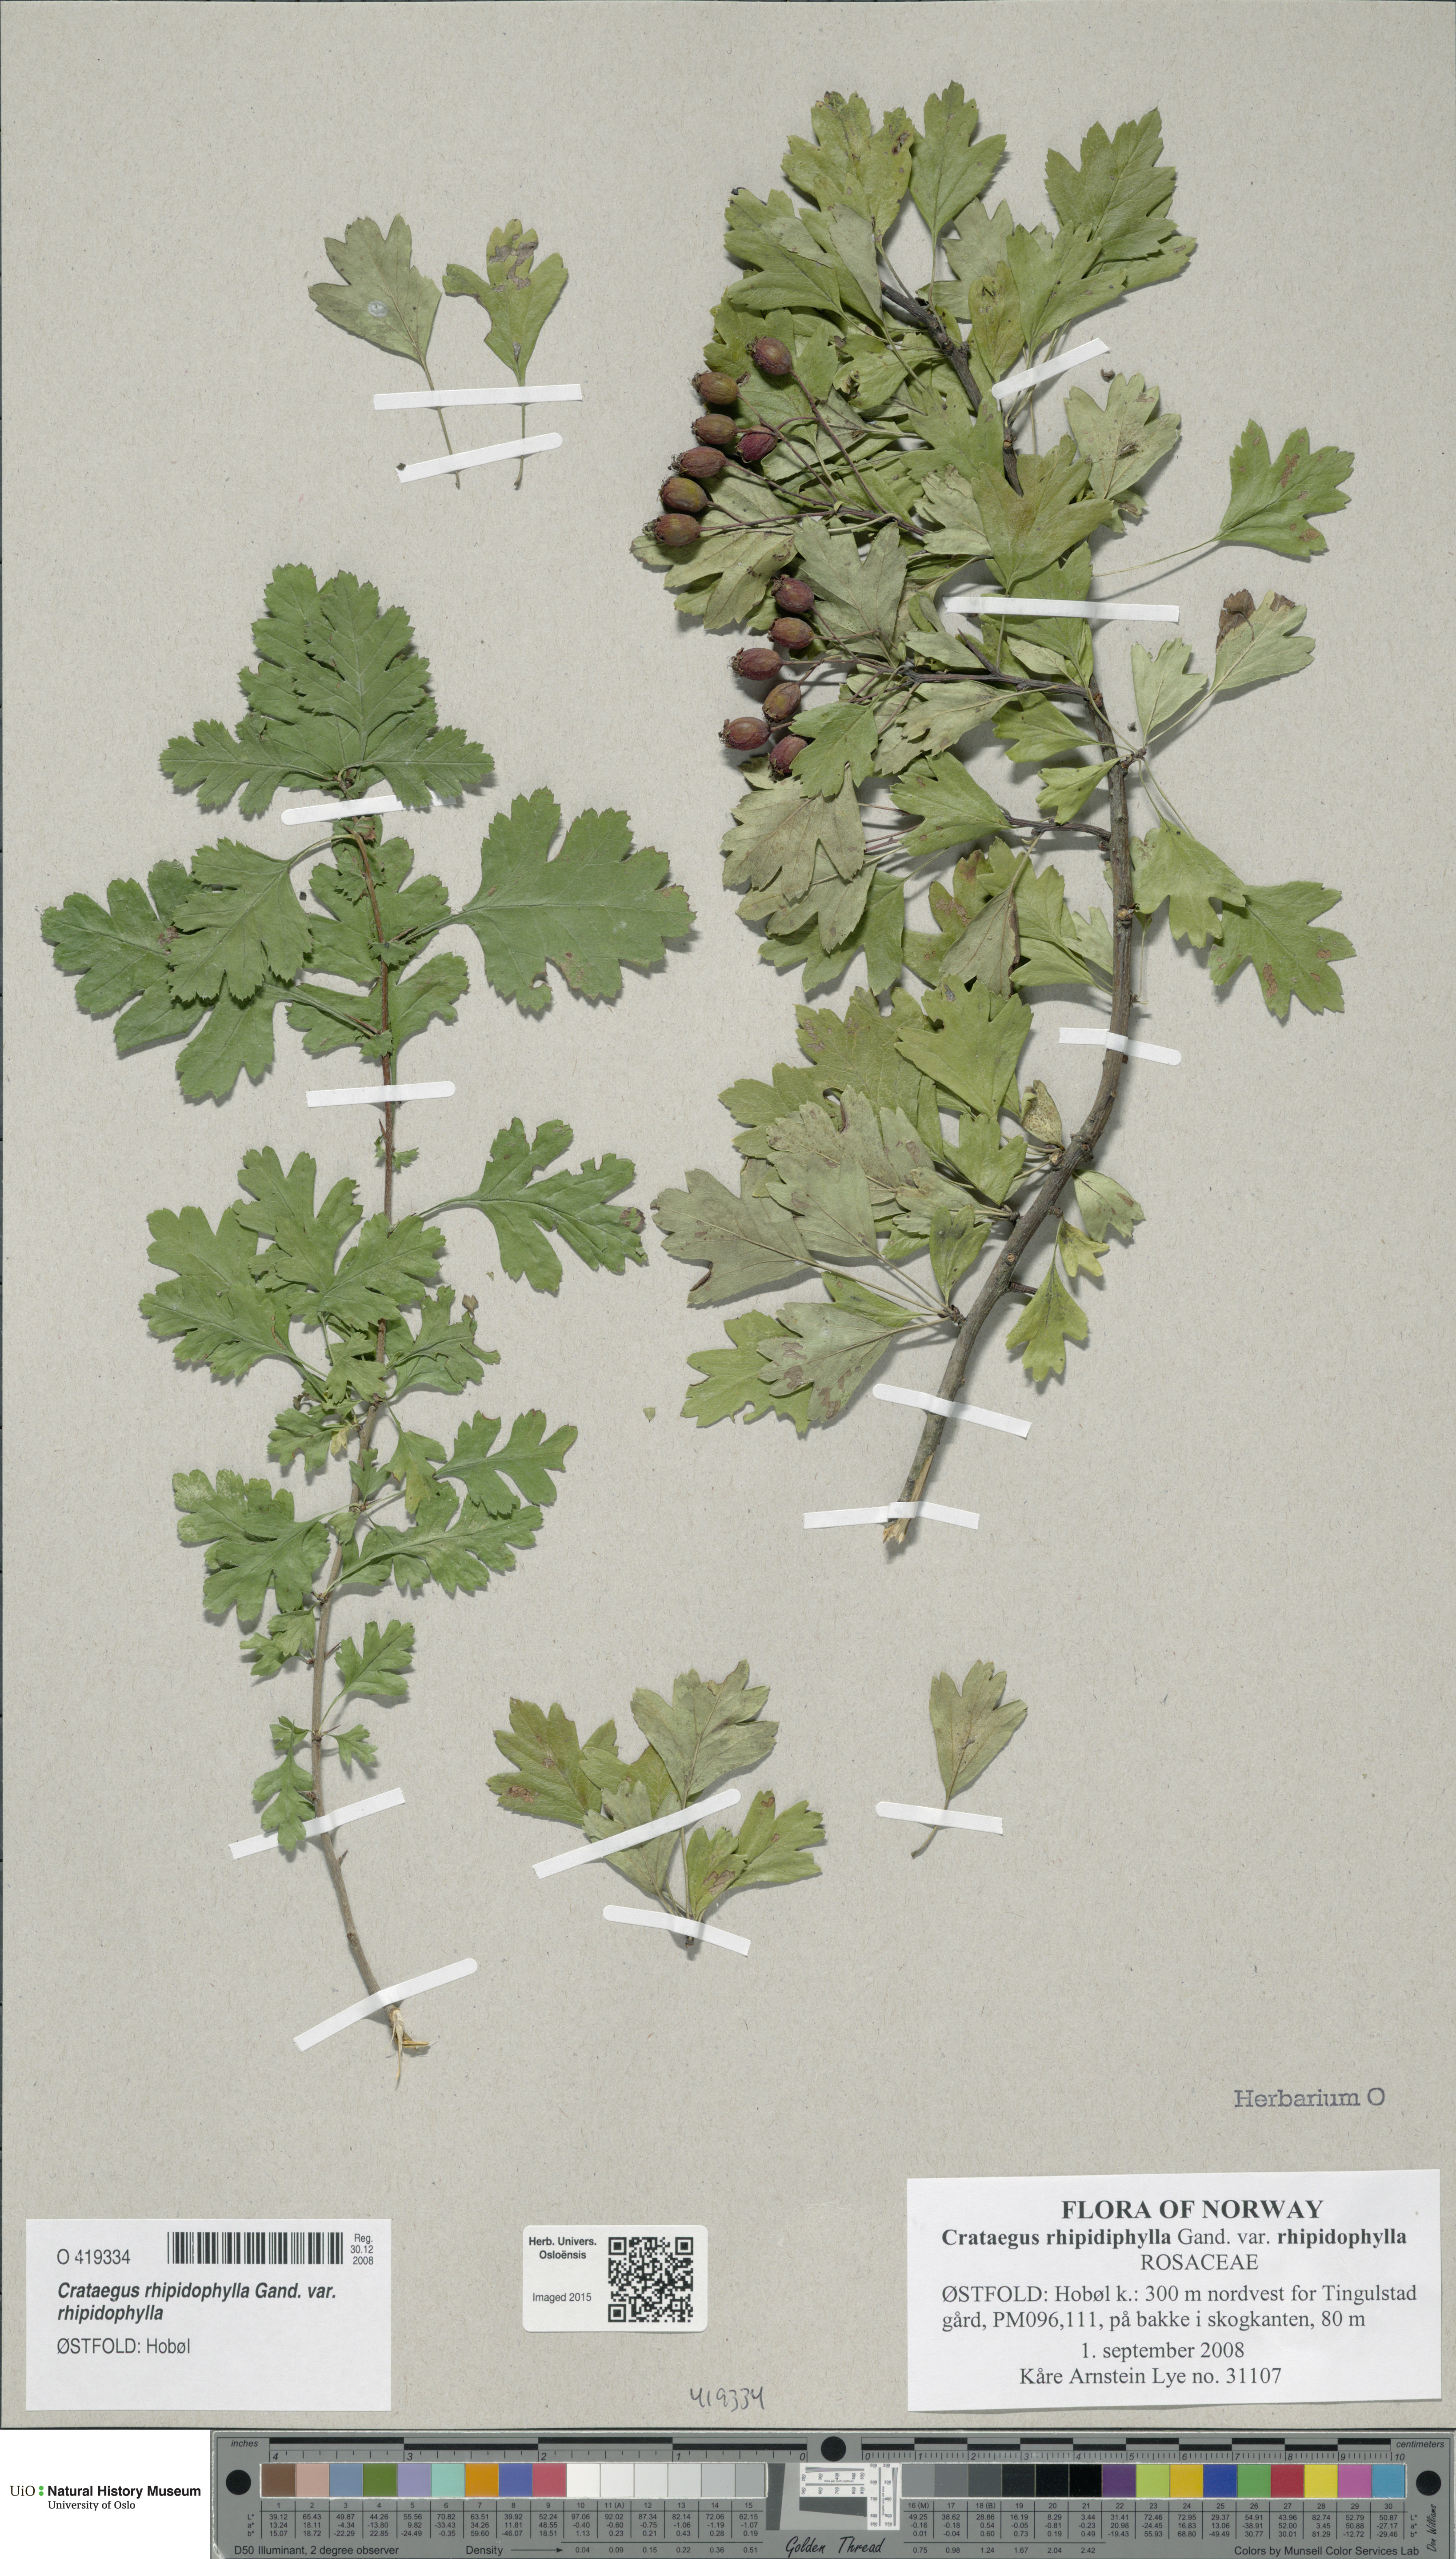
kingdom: Plantae
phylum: Tracheophyta
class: Magnoliopsida
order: Rosales
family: Rosaceae
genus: Crataegus
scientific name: Crataegus rhipidophylla
